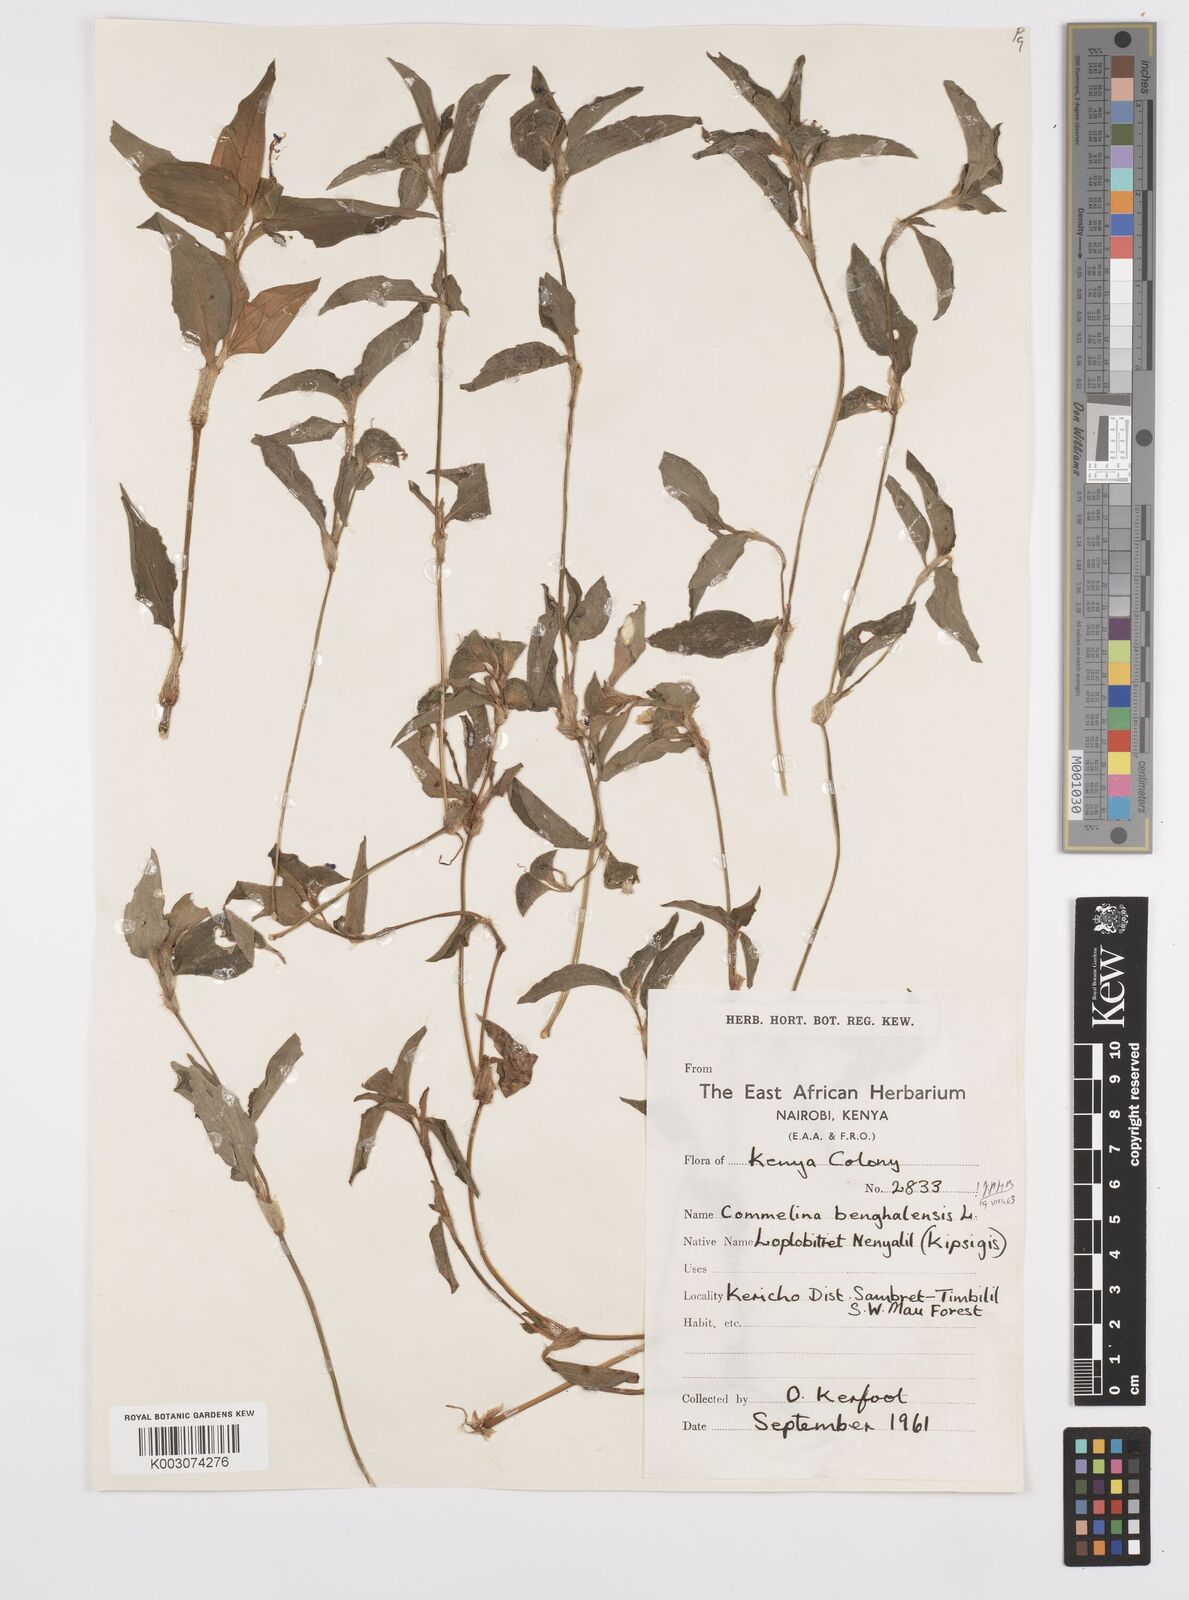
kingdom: Plantae
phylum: Tracheophyta
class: Liliopsida
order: Commelinales
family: Commelinaceae
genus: Commelina
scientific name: Commelina benghalensis
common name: Jio
